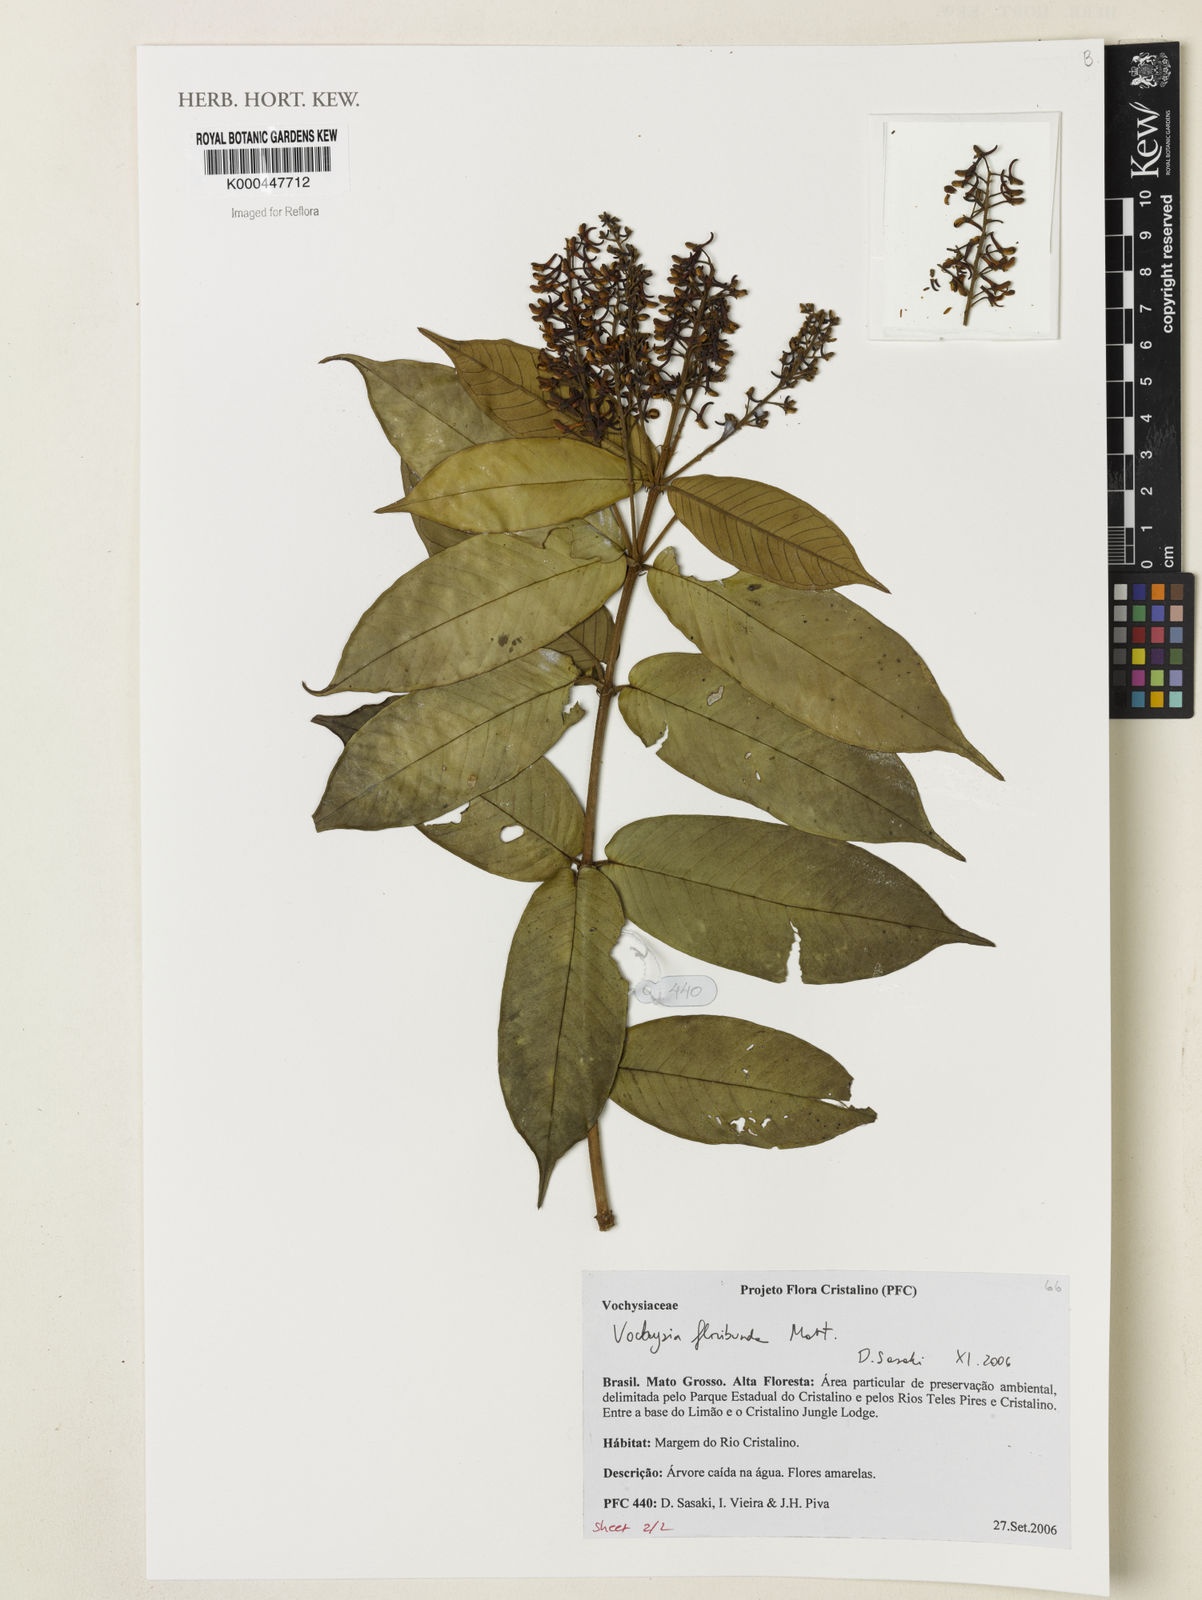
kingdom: Plantae
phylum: Tracheophyta
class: Magnoliopsida
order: Myrtales
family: Vochysiaceae
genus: Vochysia
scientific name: Vochysia floribunda
